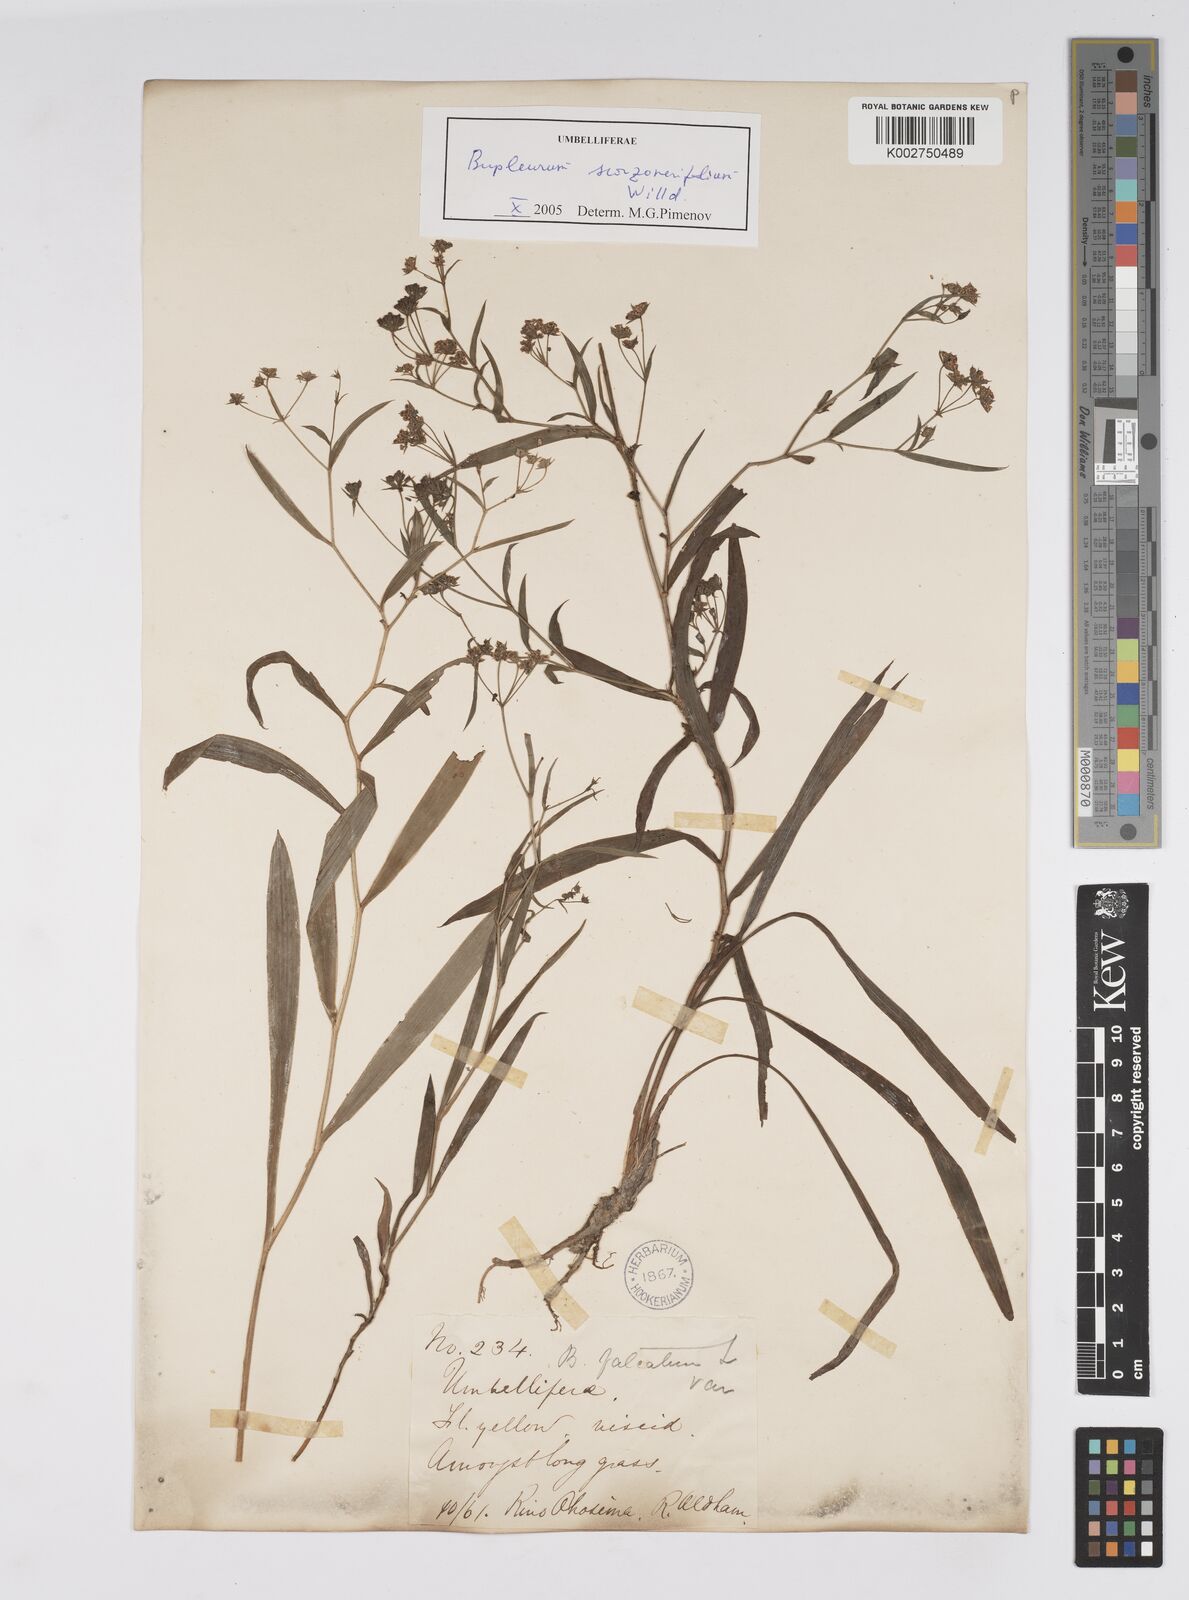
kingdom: Plantae
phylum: Tracheophyta
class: Magnoliopsida
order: Apiales
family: Apiaceae
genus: Bupleurum
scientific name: Bupleurum krylovianum
